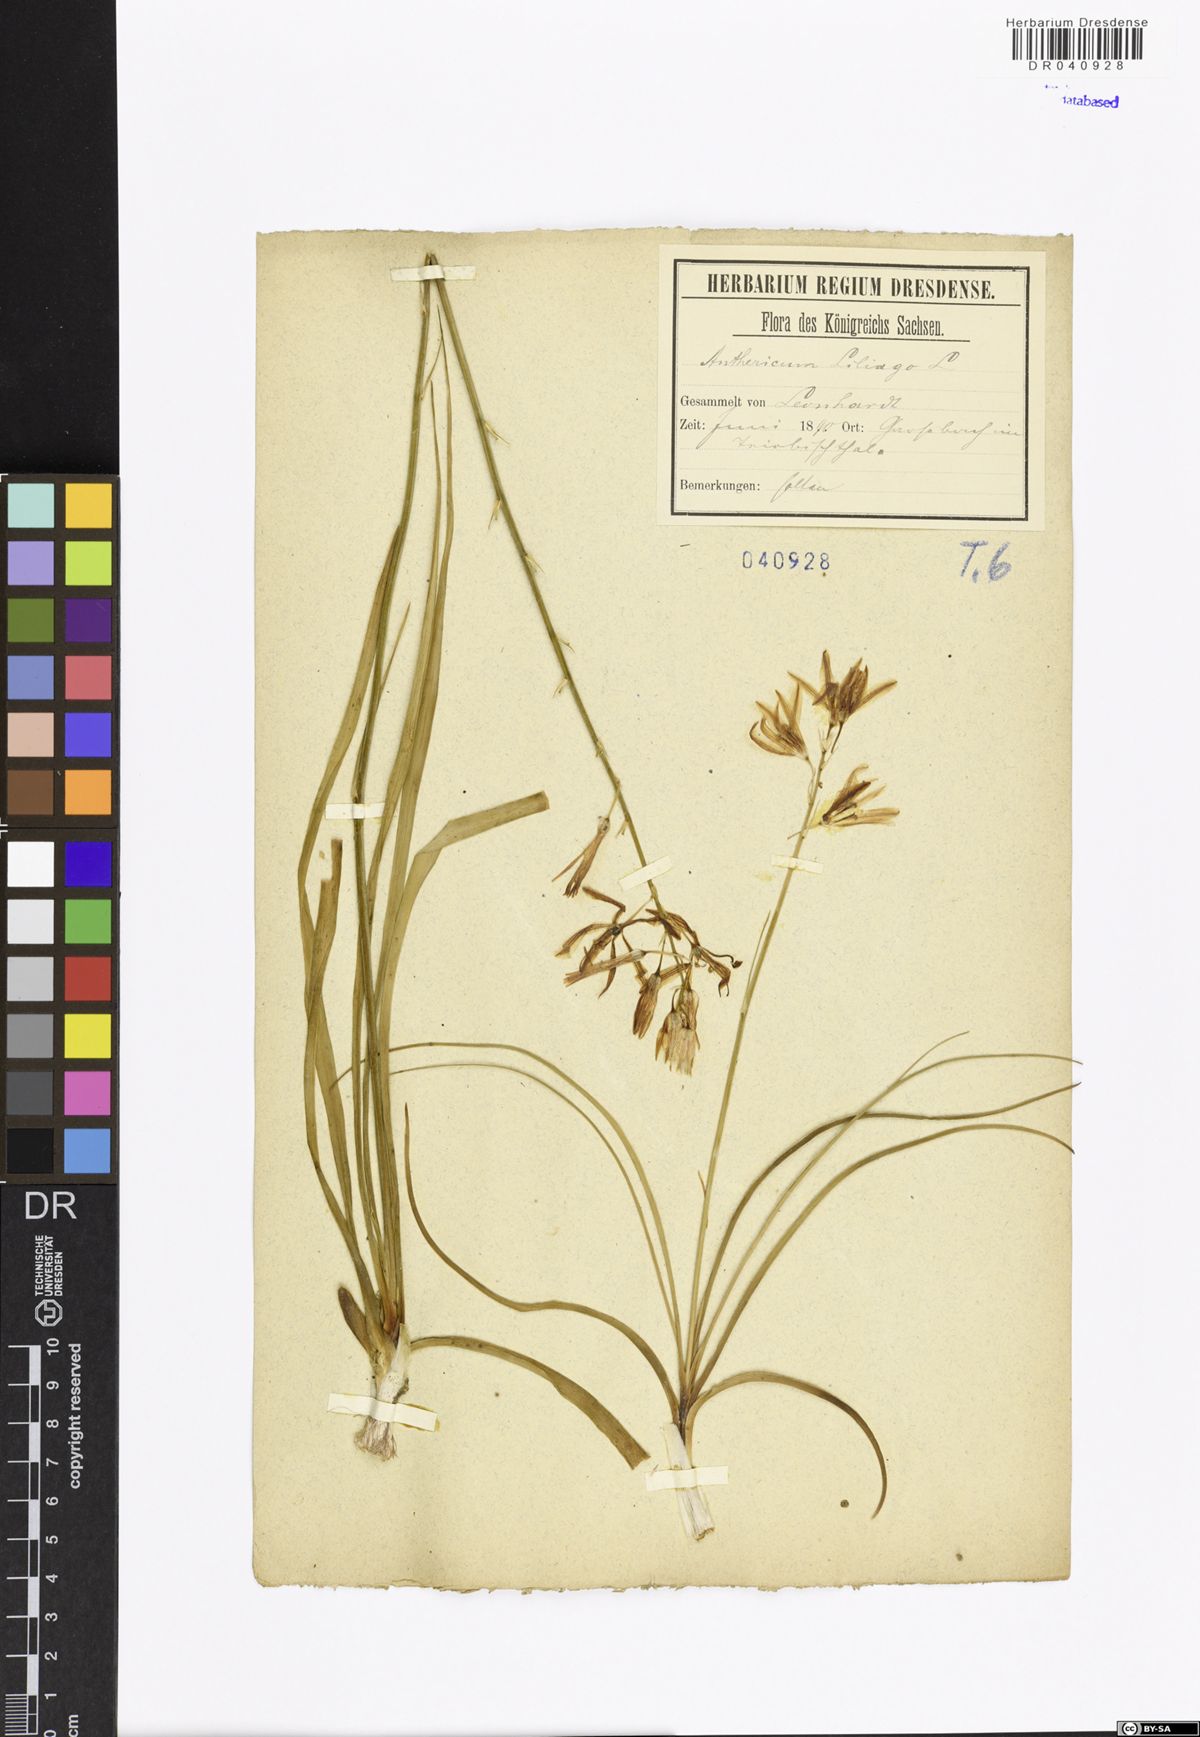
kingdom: Plantae
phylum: Tracheophyta
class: Liliopsida
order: Asparagales
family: Asparagaceae
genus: Anthericum
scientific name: Anthericum liliago
